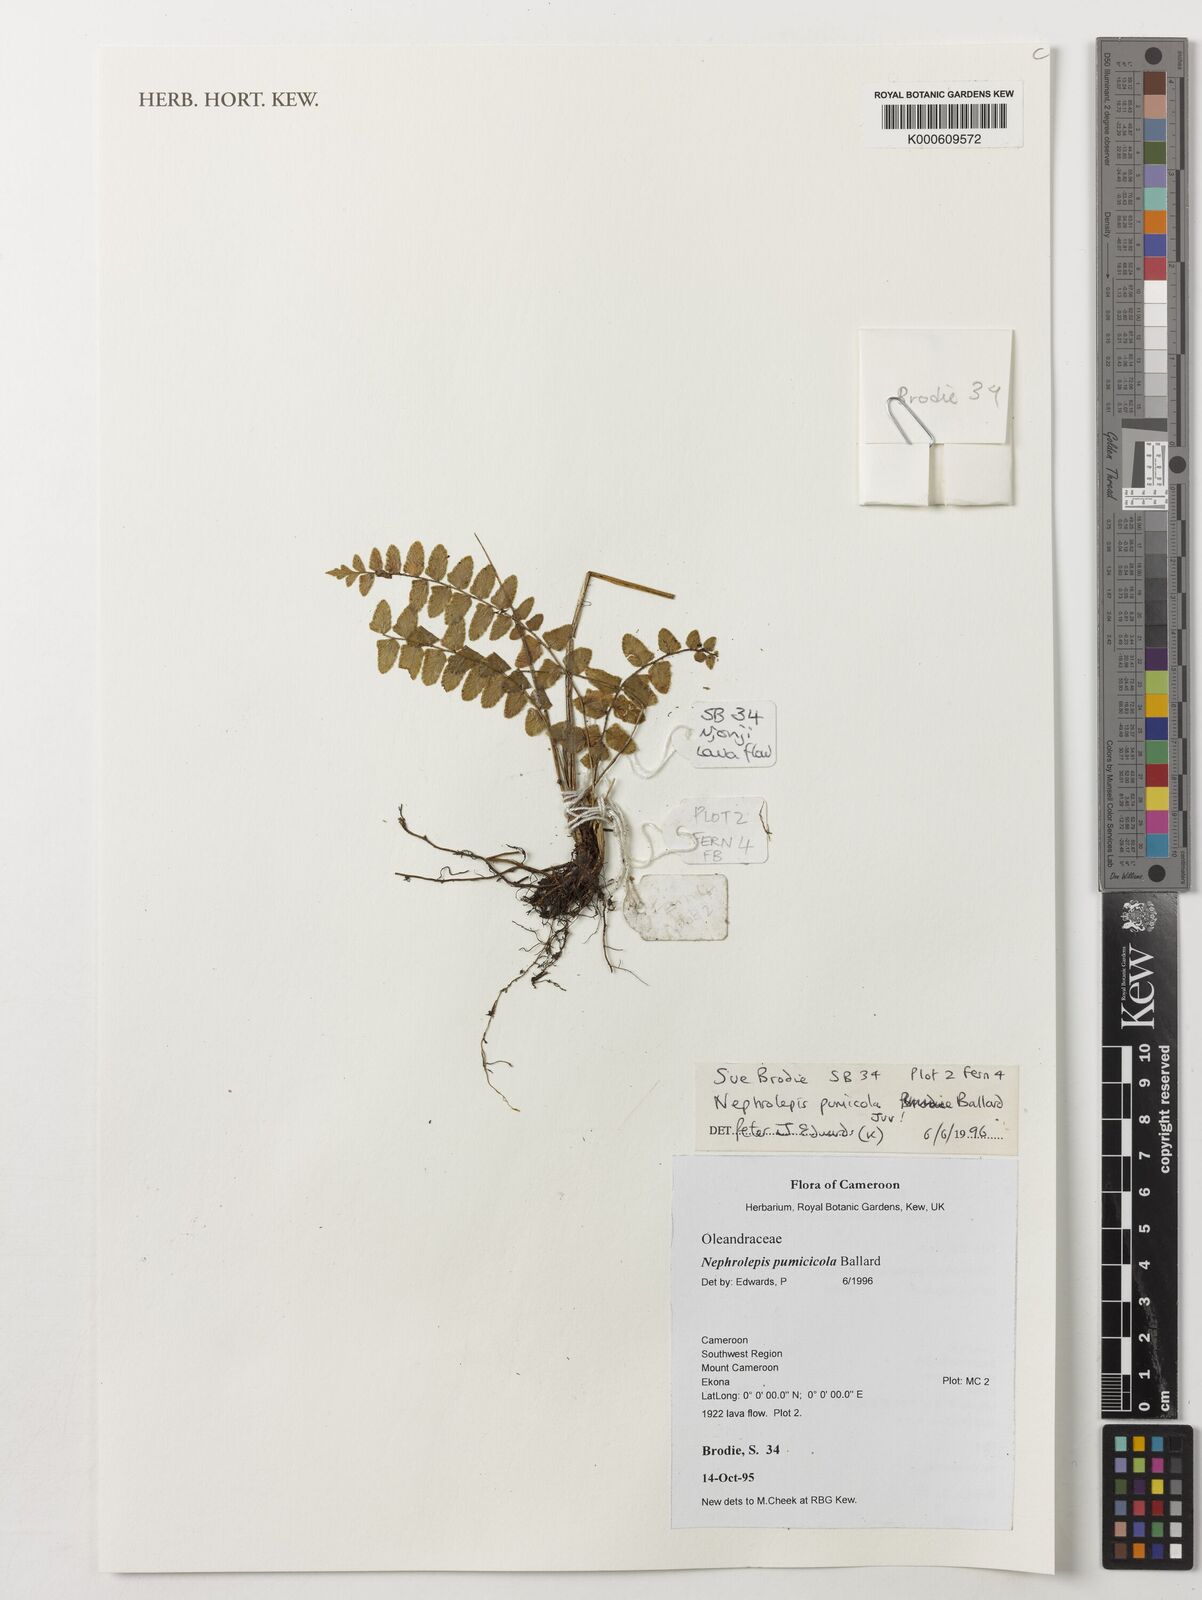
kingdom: Plantae
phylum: Tracheophyta
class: Polypodiopsida
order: Polypodiales
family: Nephrolepidaceae
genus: Nephrolepis
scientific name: Nephrolepis cordifolia
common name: Narrow swordfern
